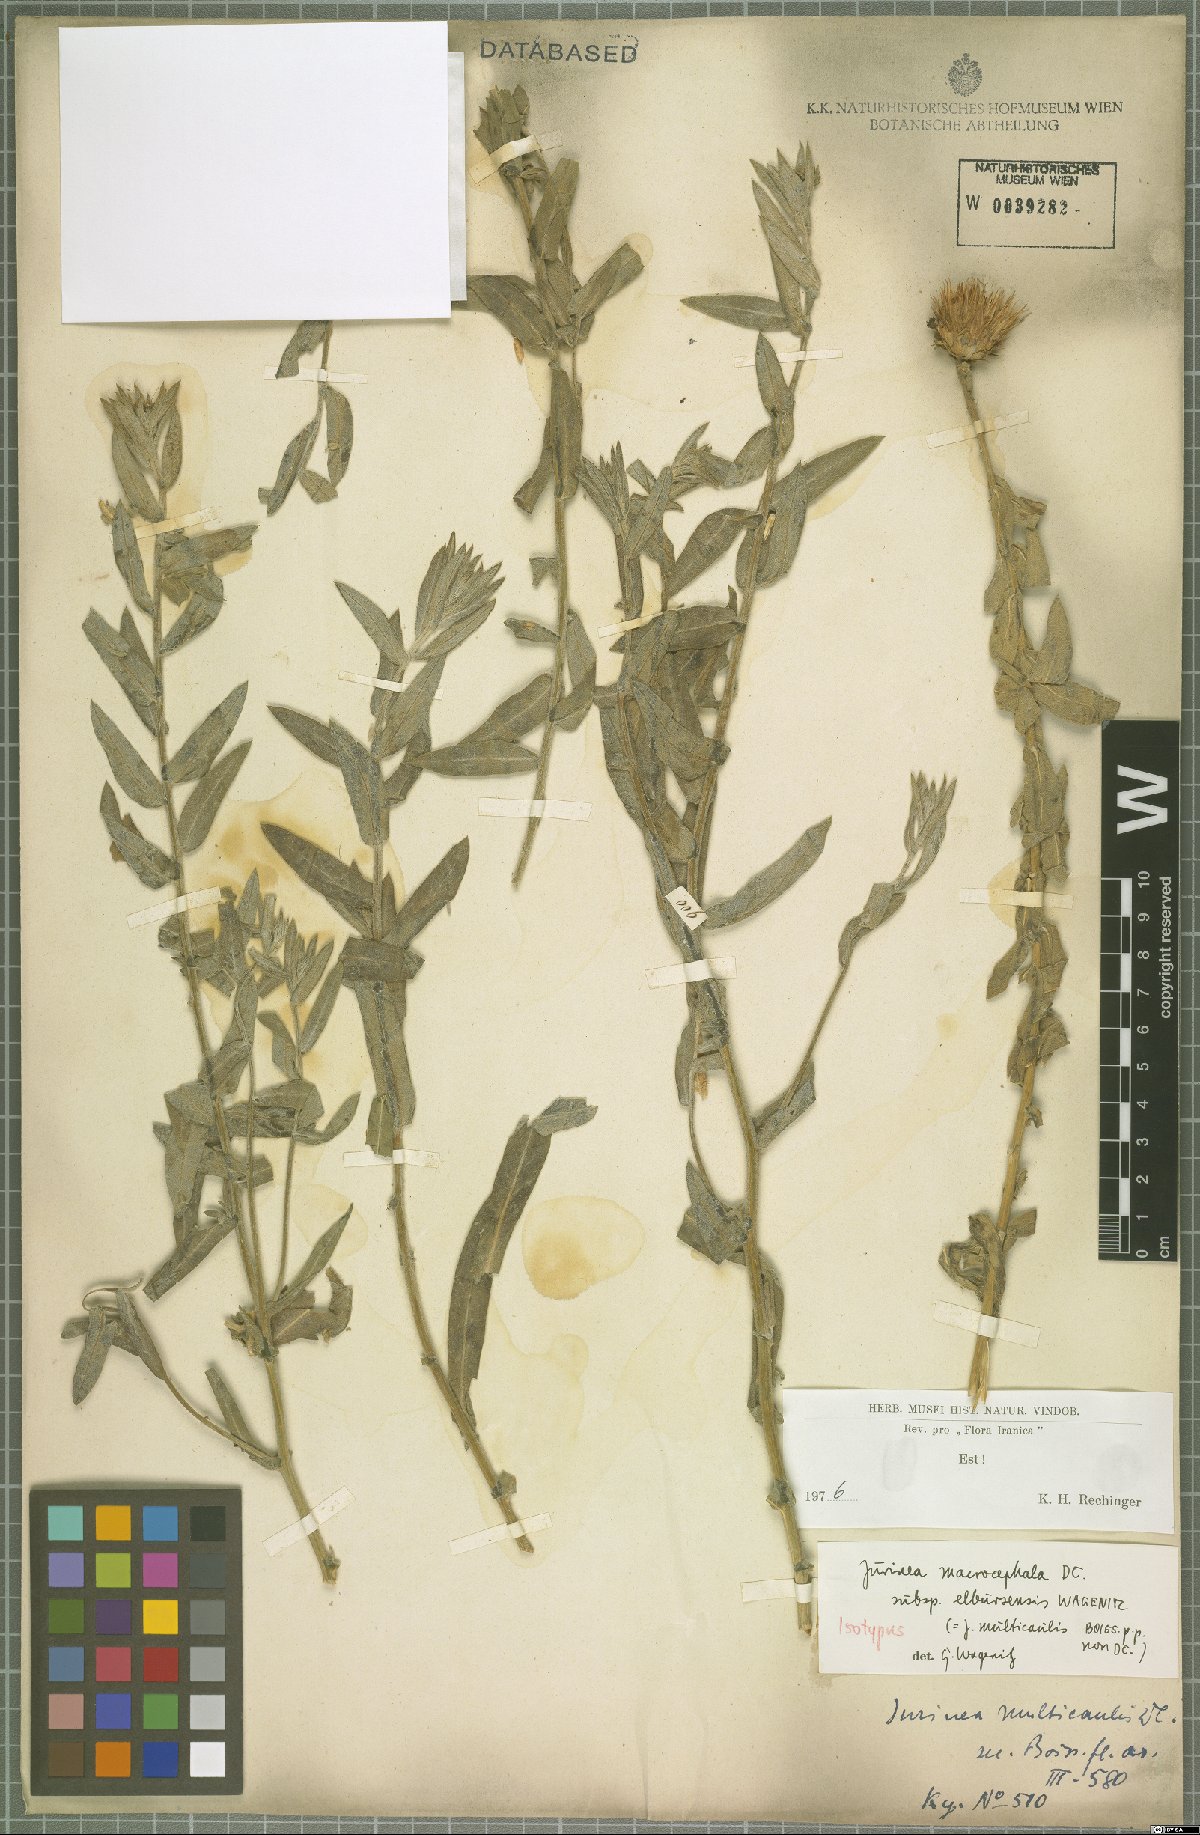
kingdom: Plantae
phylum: Tracheophyta
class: Magnoliopsida
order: Asterales
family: Asteraceae
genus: Jurinea
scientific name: Jurinea elbursensis
